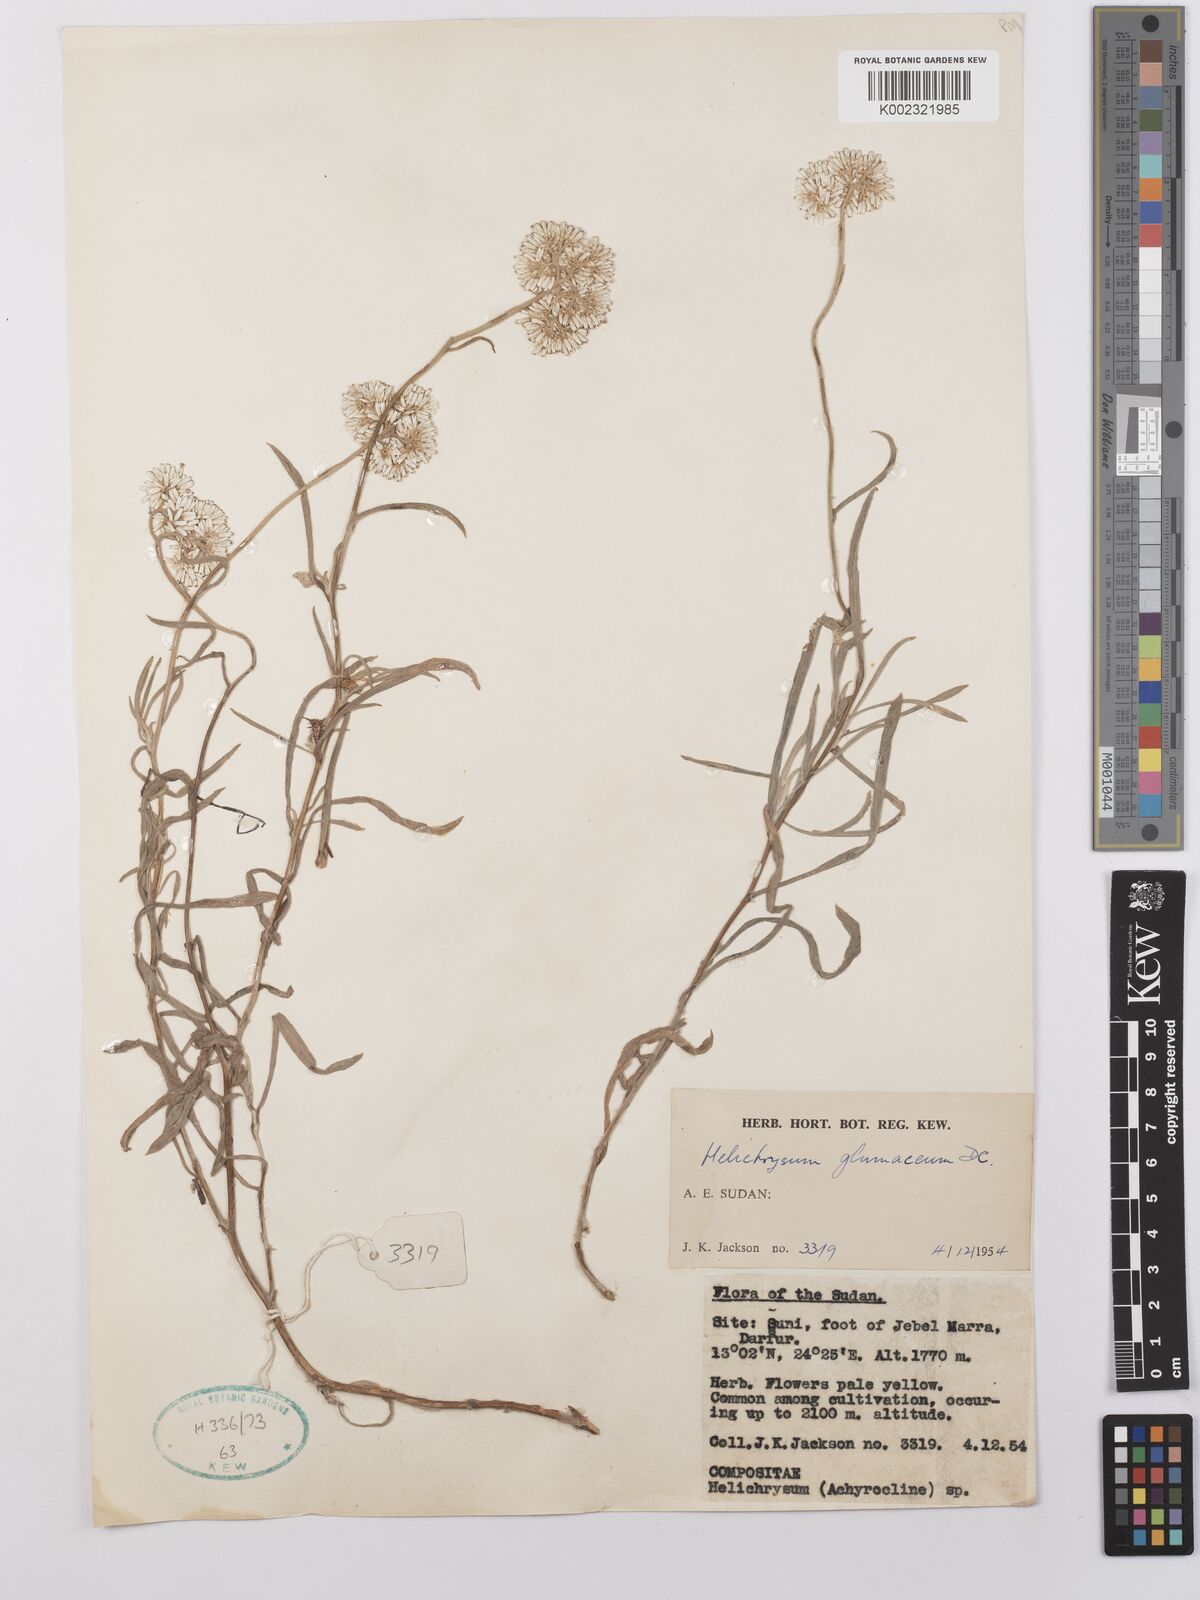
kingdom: Plantae
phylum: Tracheophyta
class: Magnoliopsida
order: Asterales
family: Asteraceae
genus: Helichrysum
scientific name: Helichrysum glumaceum
